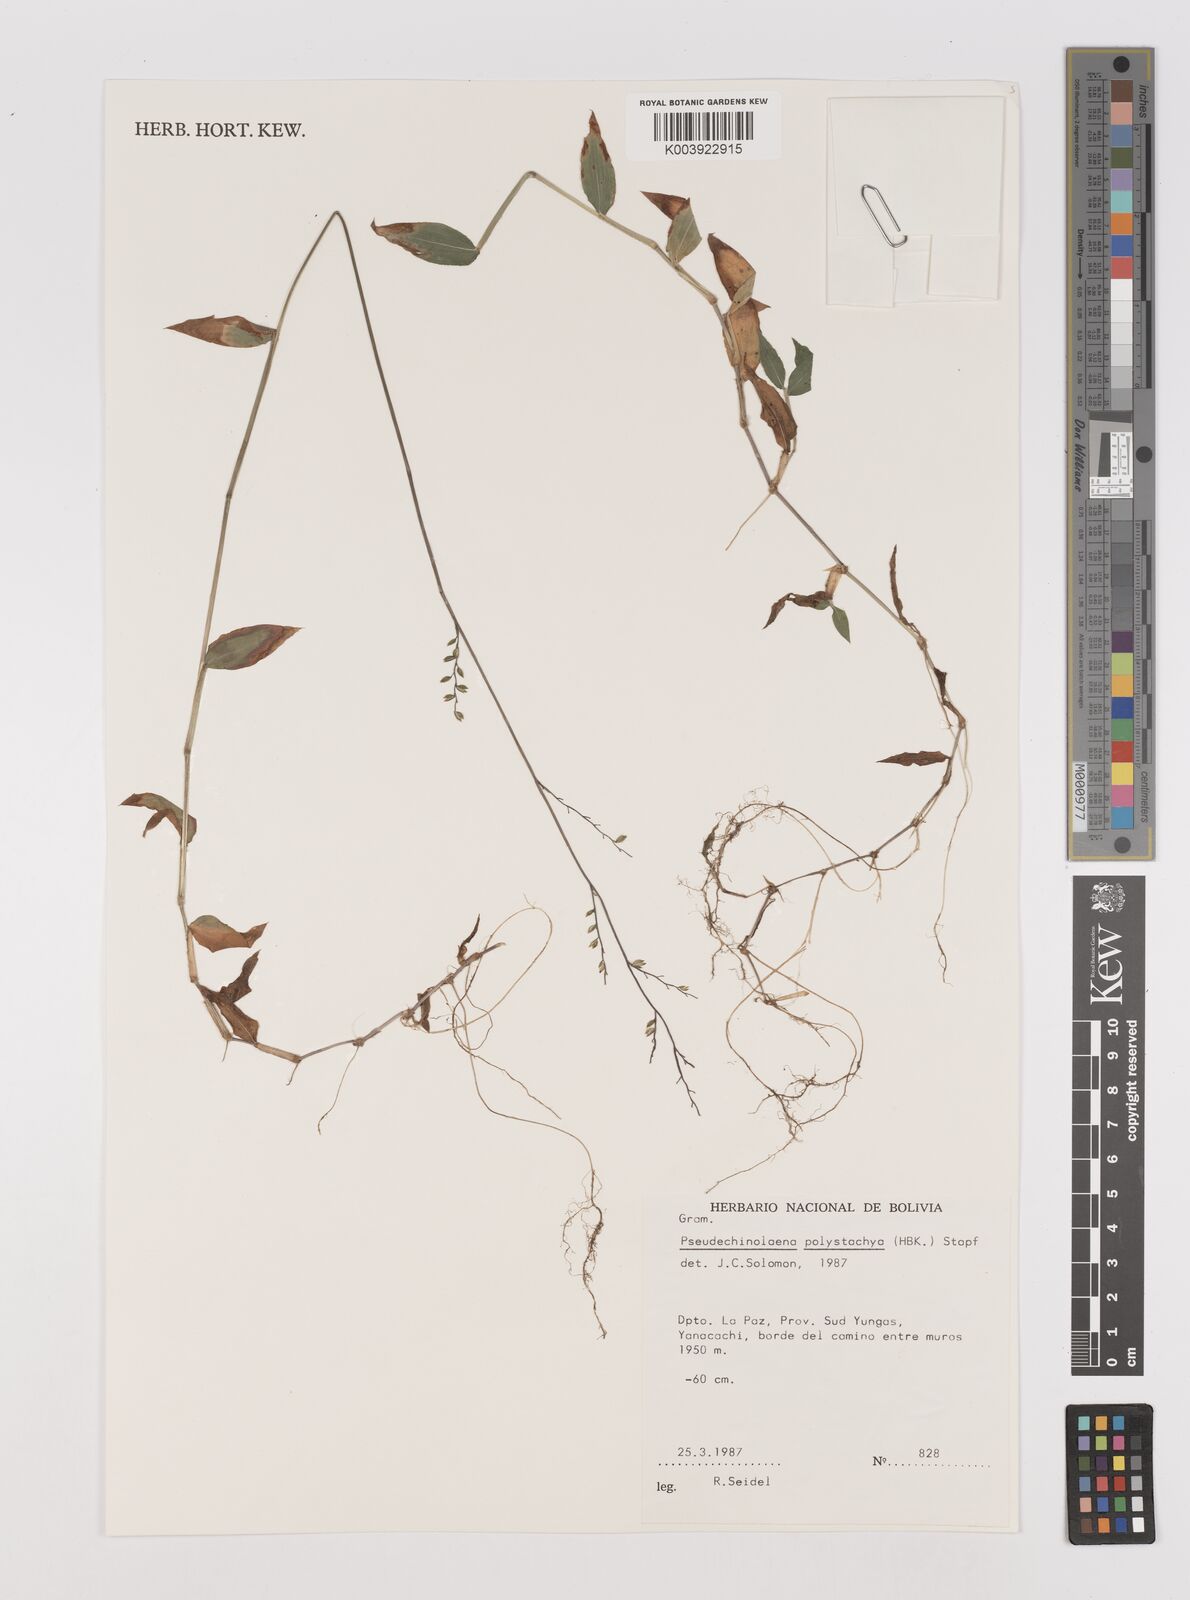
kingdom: Plantae
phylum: Tracheophyta
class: Liliopsida
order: Poales
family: Poaceae
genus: Pseudechinolaena
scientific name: Pseudechinolaena polystachya
